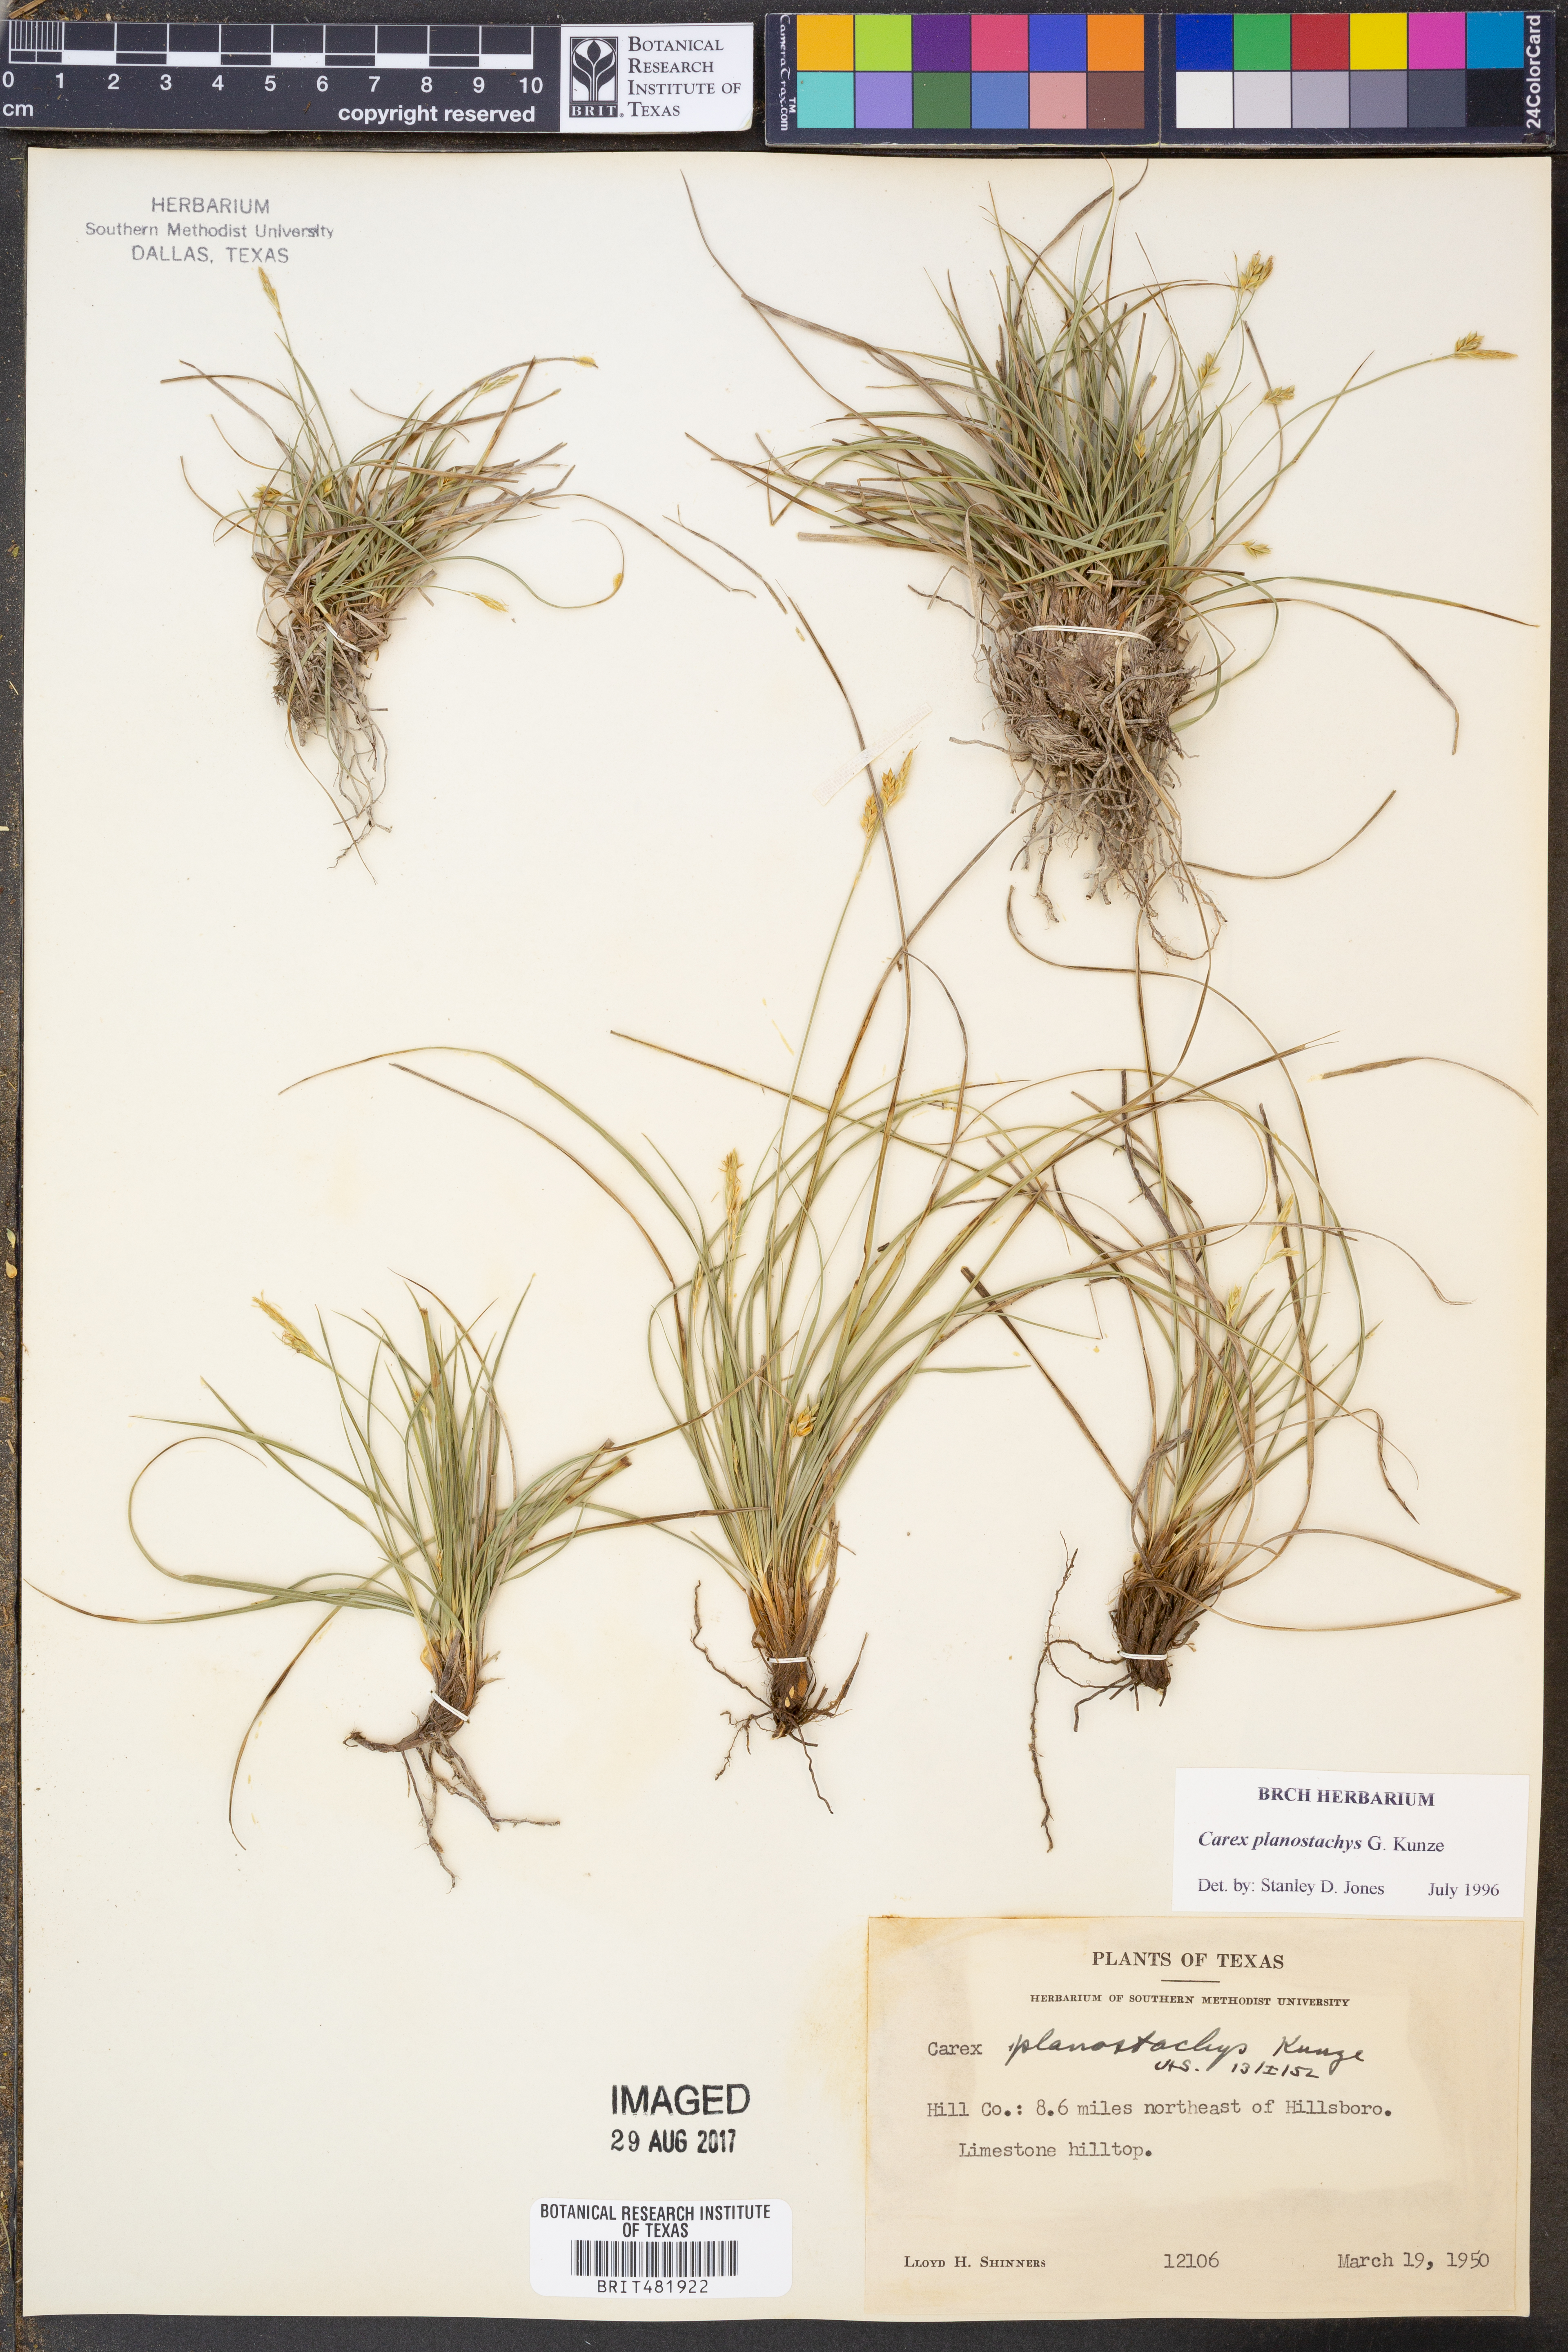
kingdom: Plantae
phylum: Tracheophyta
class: Liliopsida
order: Poales
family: Cyperaceae
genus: Carex
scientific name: Carex planostachys
